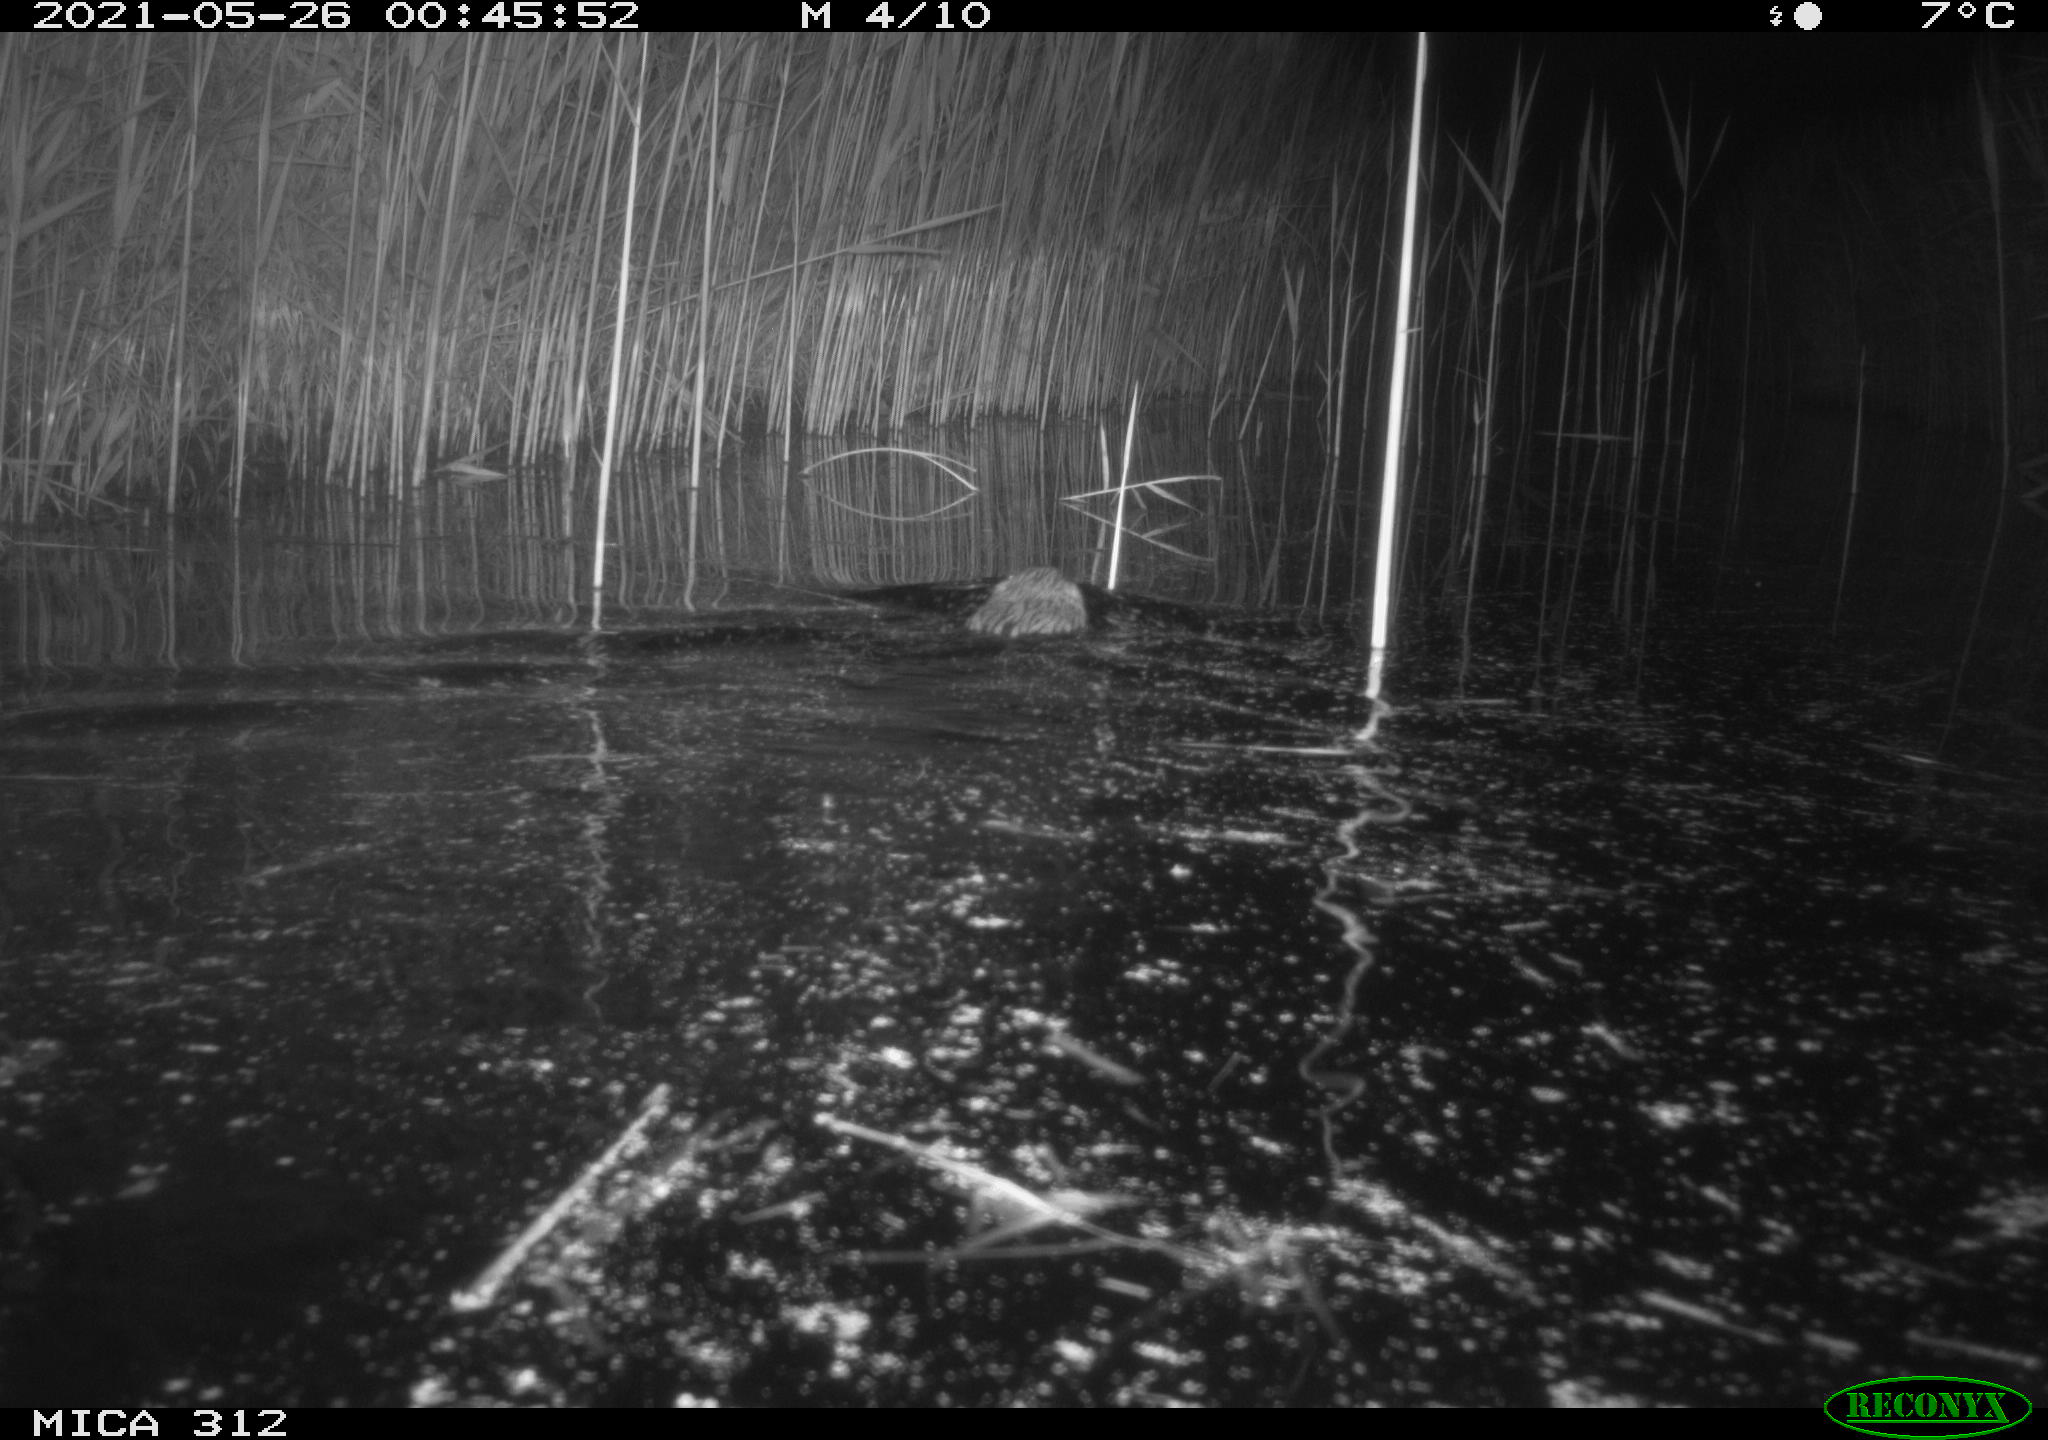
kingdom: Animalia
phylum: Chordata
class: Mammalia
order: Rodentia
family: Cricetidae
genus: Ondatra
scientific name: Ondatra zibethicus
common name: Muskrat
